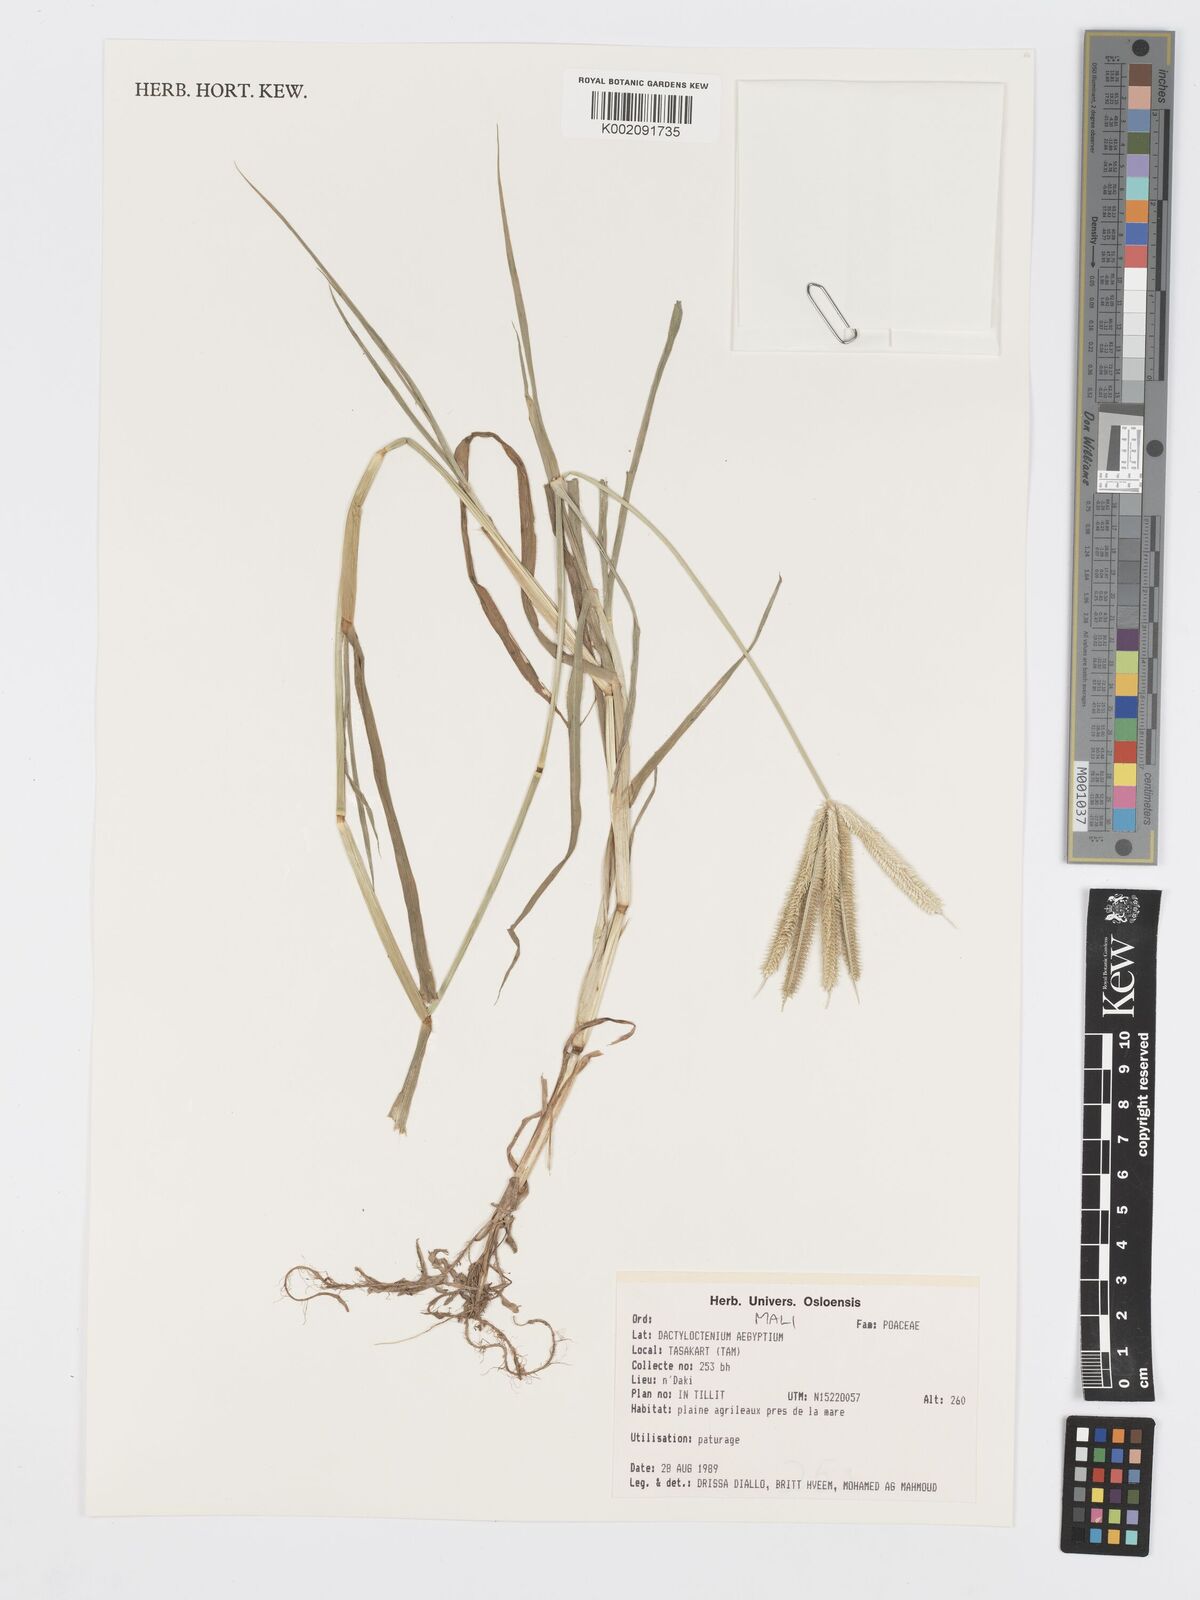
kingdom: Plantae
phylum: Tracheophyta
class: Liliopsida
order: Poales
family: Poaceae
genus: Dactyloctenium
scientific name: Dactyloctenium aegyptium
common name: Egyptian grass
